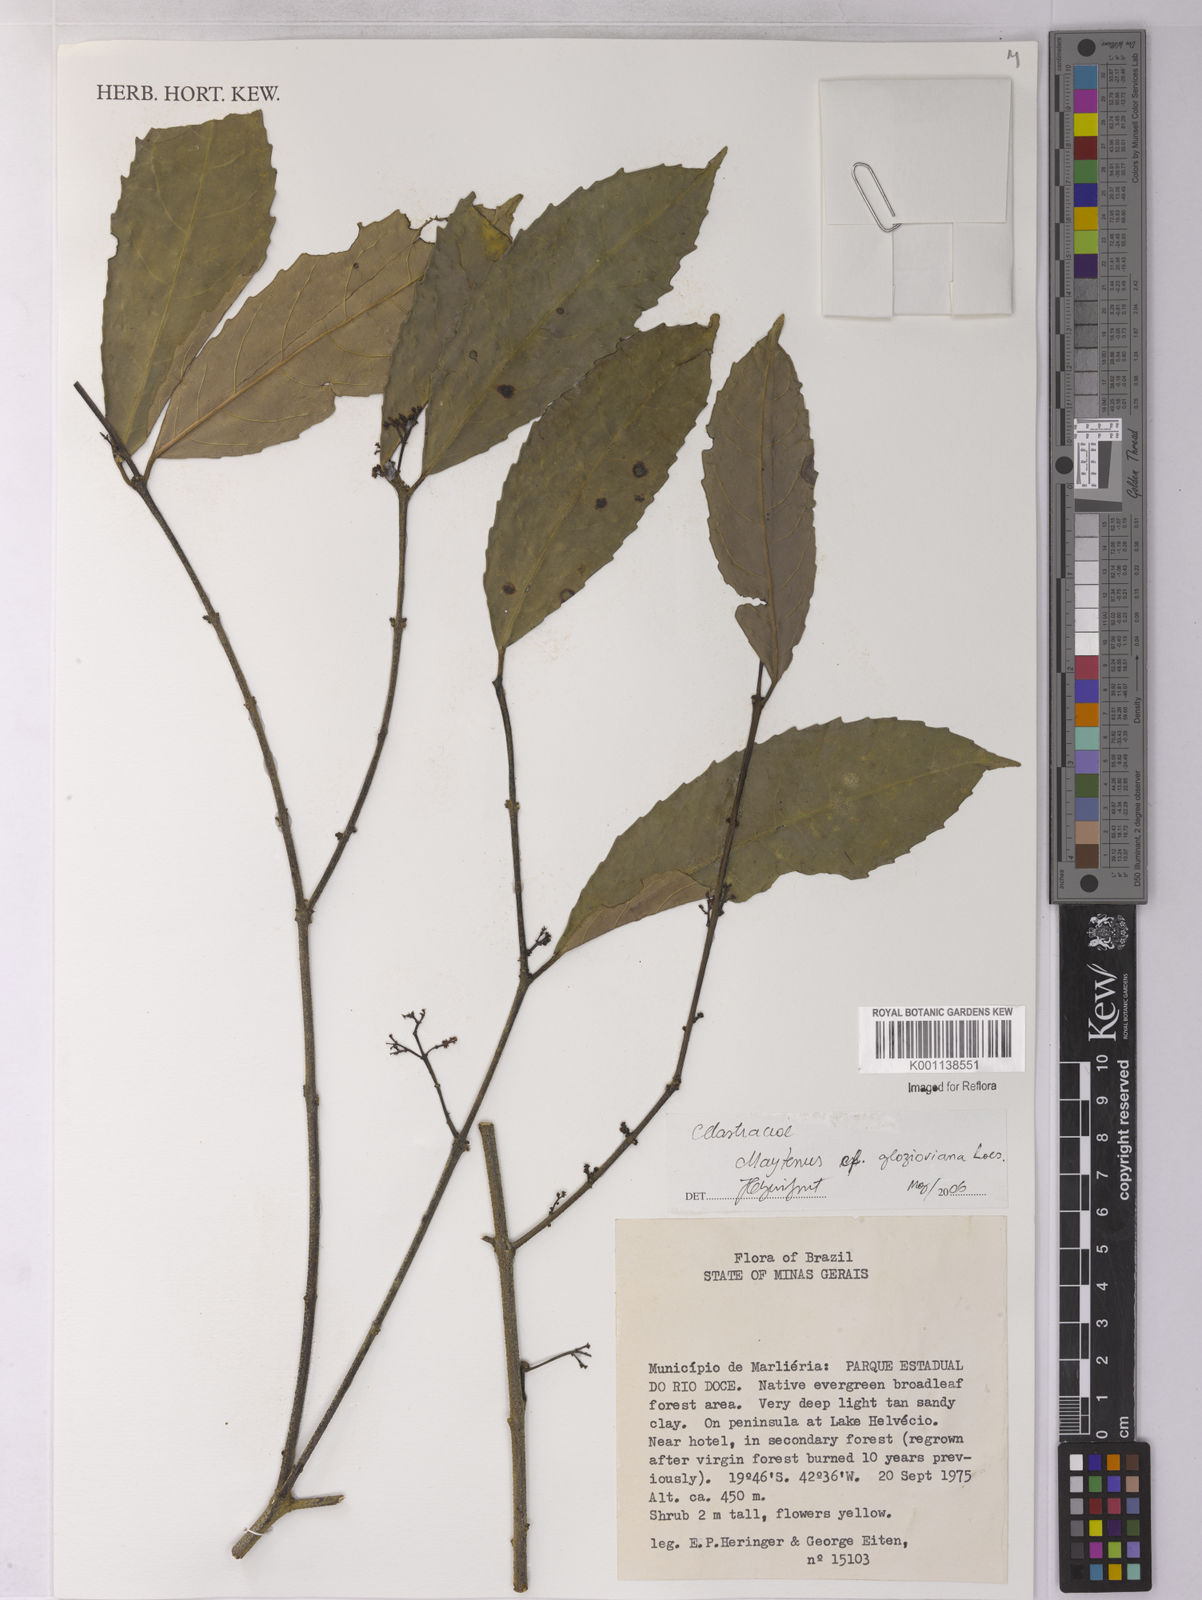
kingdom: Plantae
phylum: Tracheophyta
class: Magnoliopsida
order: Celastrales
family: Celastraceae
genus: Monteverdia
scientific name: Monteverdia communis
